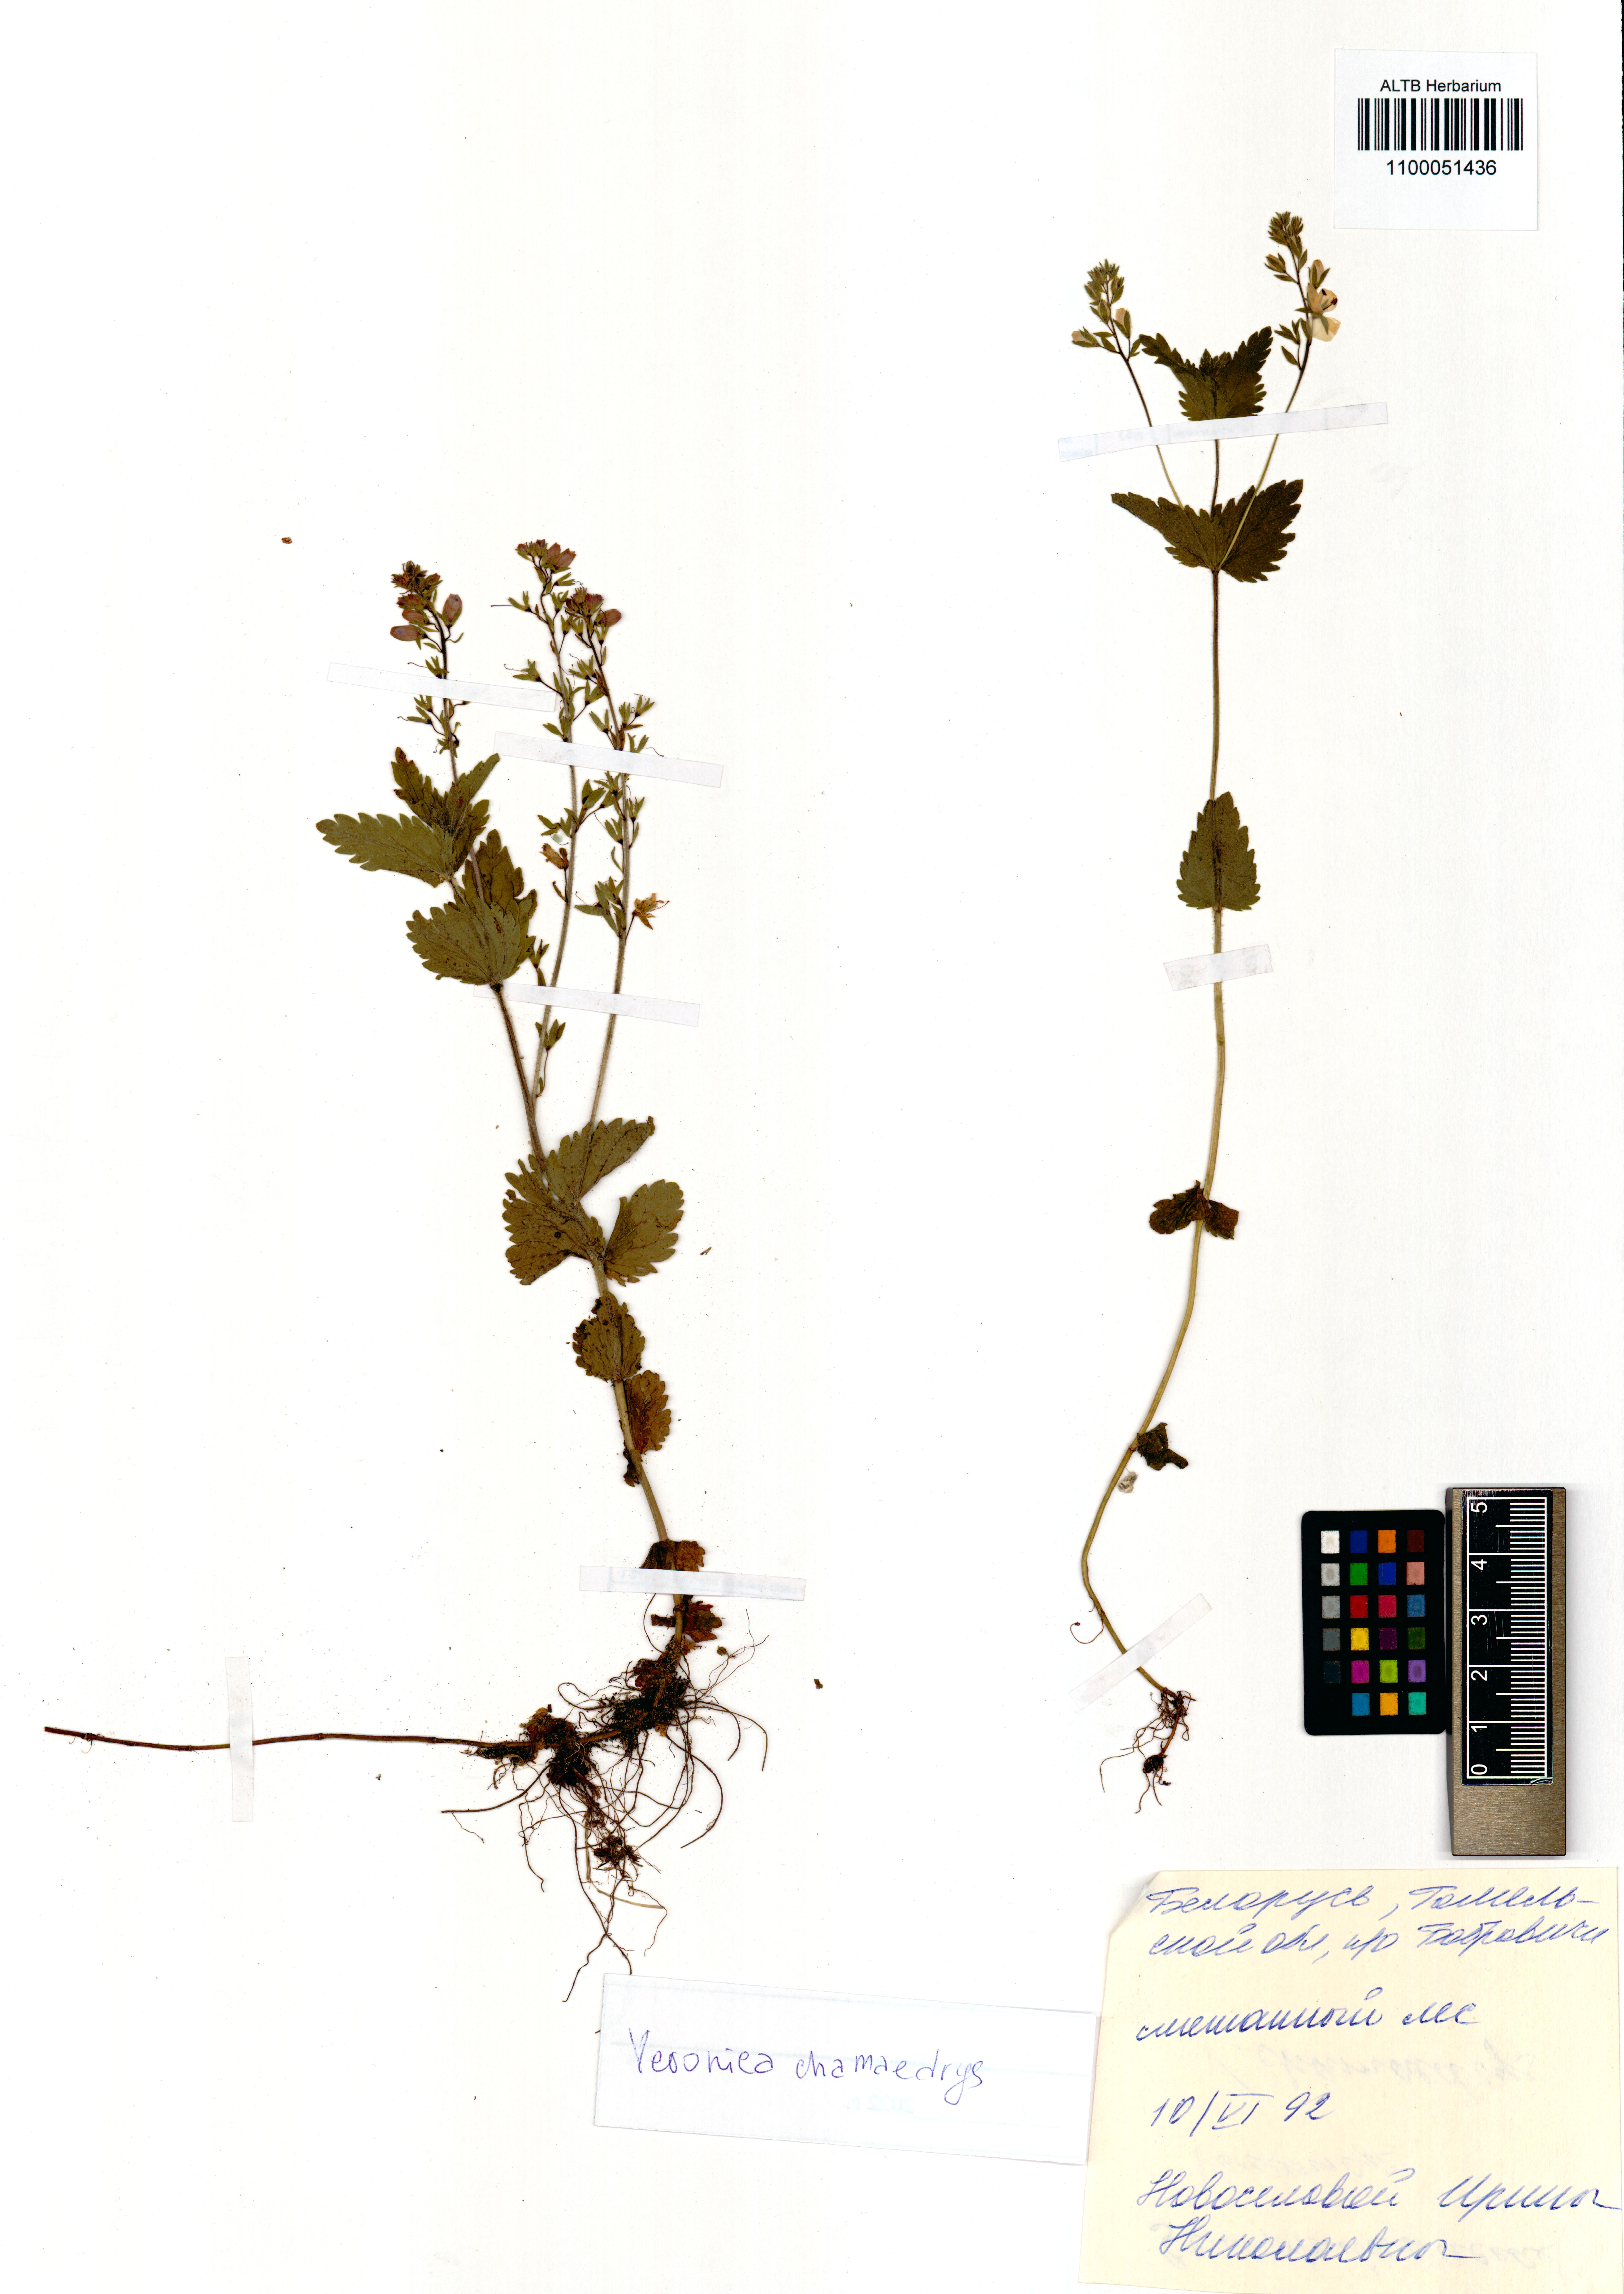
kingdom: Plantae
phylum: Tracheophyta
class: Magnoliopsida
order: Lamiales
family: Plantaginaceae
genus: Veronica
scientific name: Veronica chamaedrys
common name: Germander speedwell
